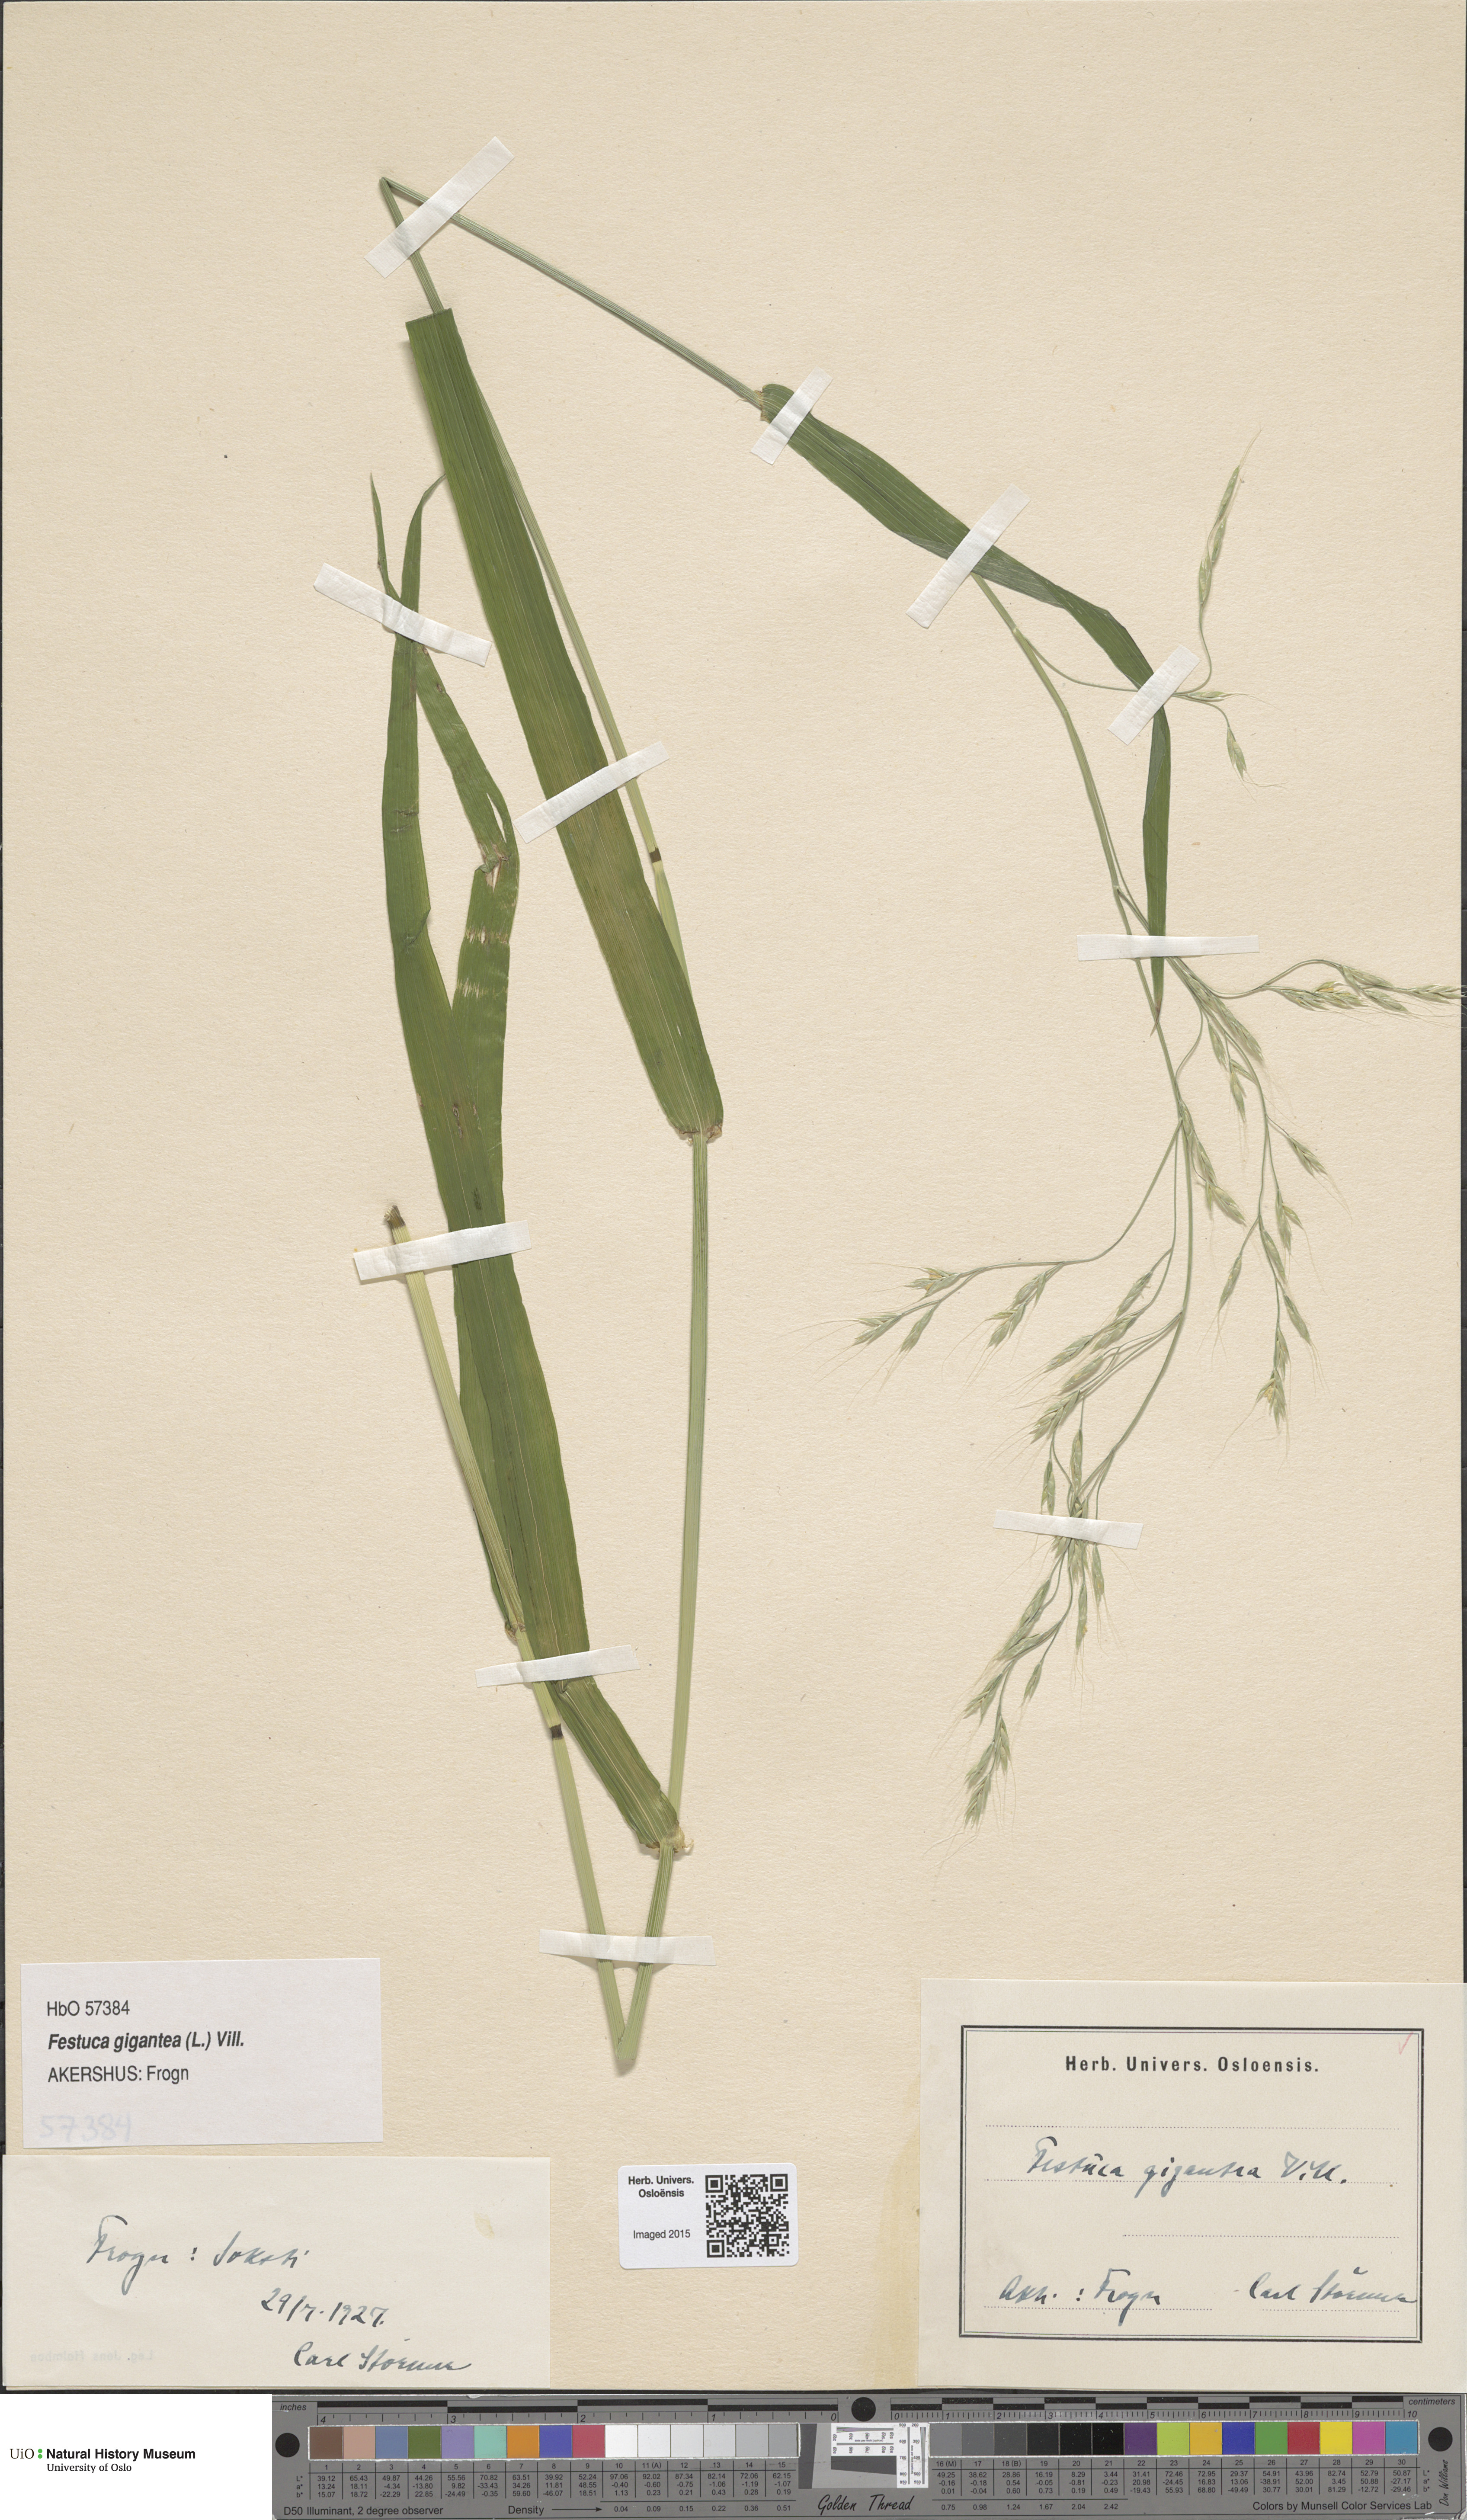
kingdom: Plantae
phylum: Tracheophyta
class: Liliopsida
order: Poales
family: Poaceae
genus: Lolium
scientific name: Lolium giganteum
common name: Giant fescue
